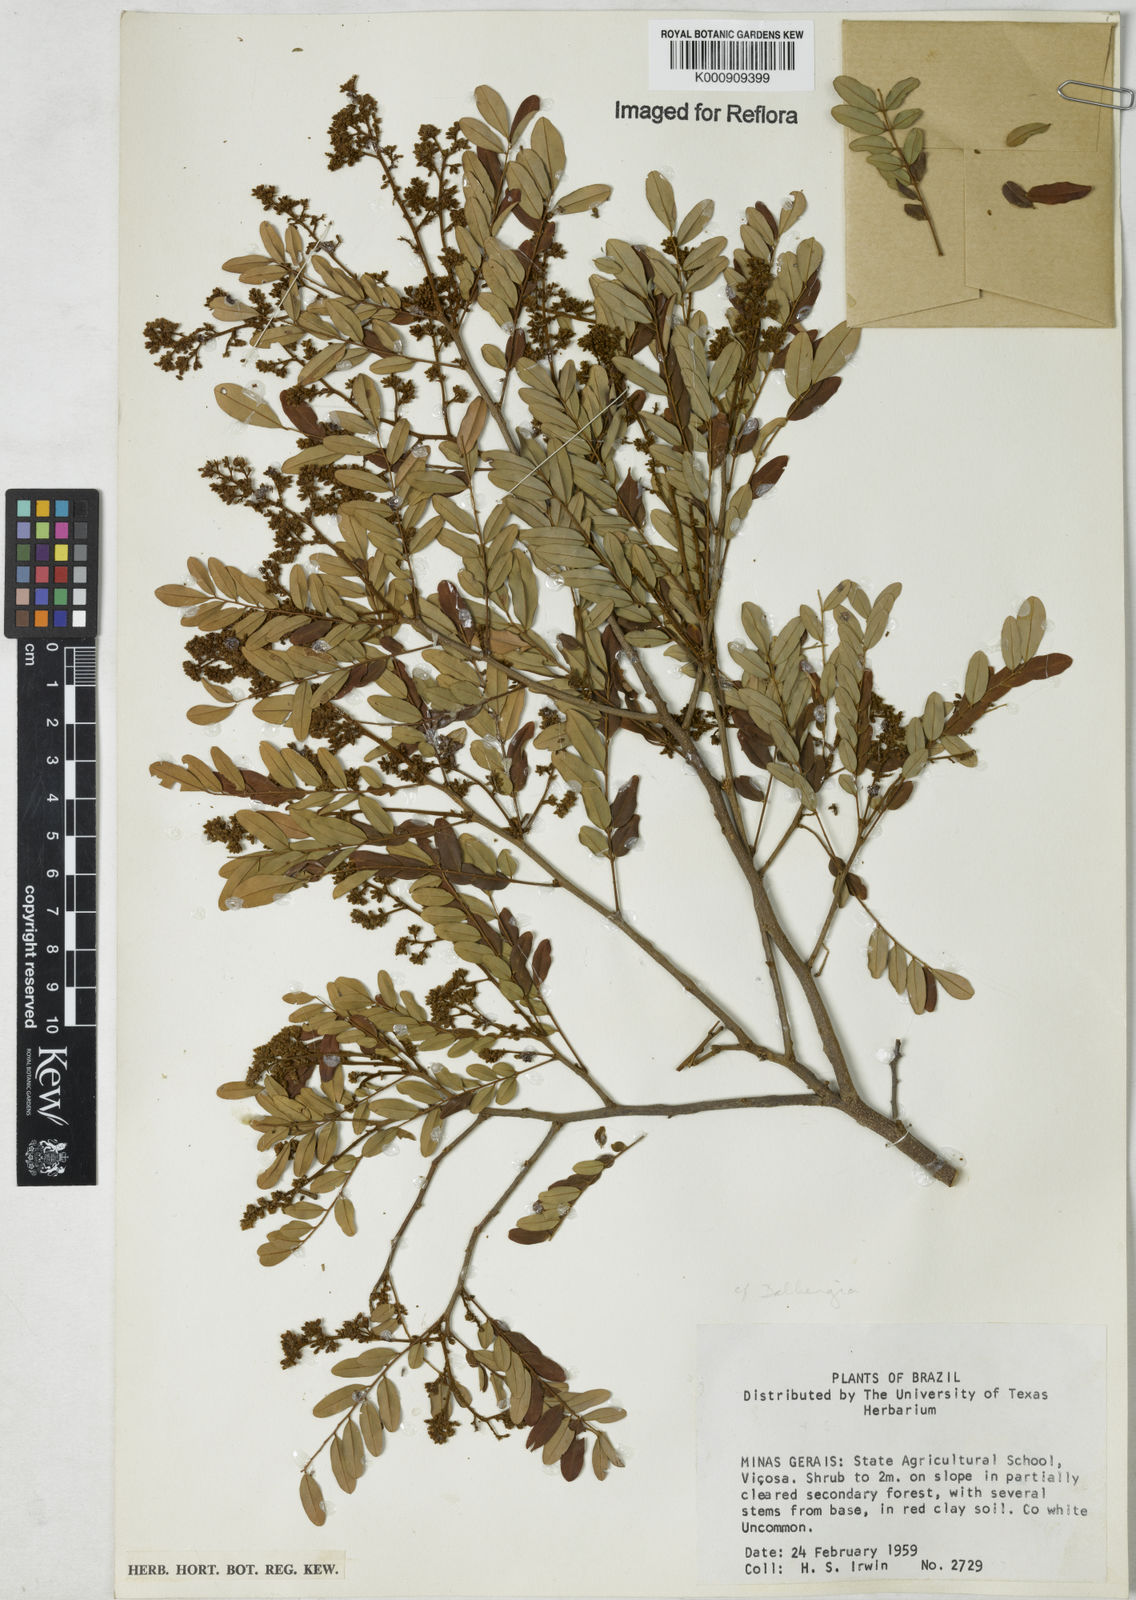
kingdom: Plantae
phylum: Tracheophyta
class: Magnoliopsida
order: Fabales
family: Fabaceae
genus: Dalbergia
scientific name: Dalbergia
